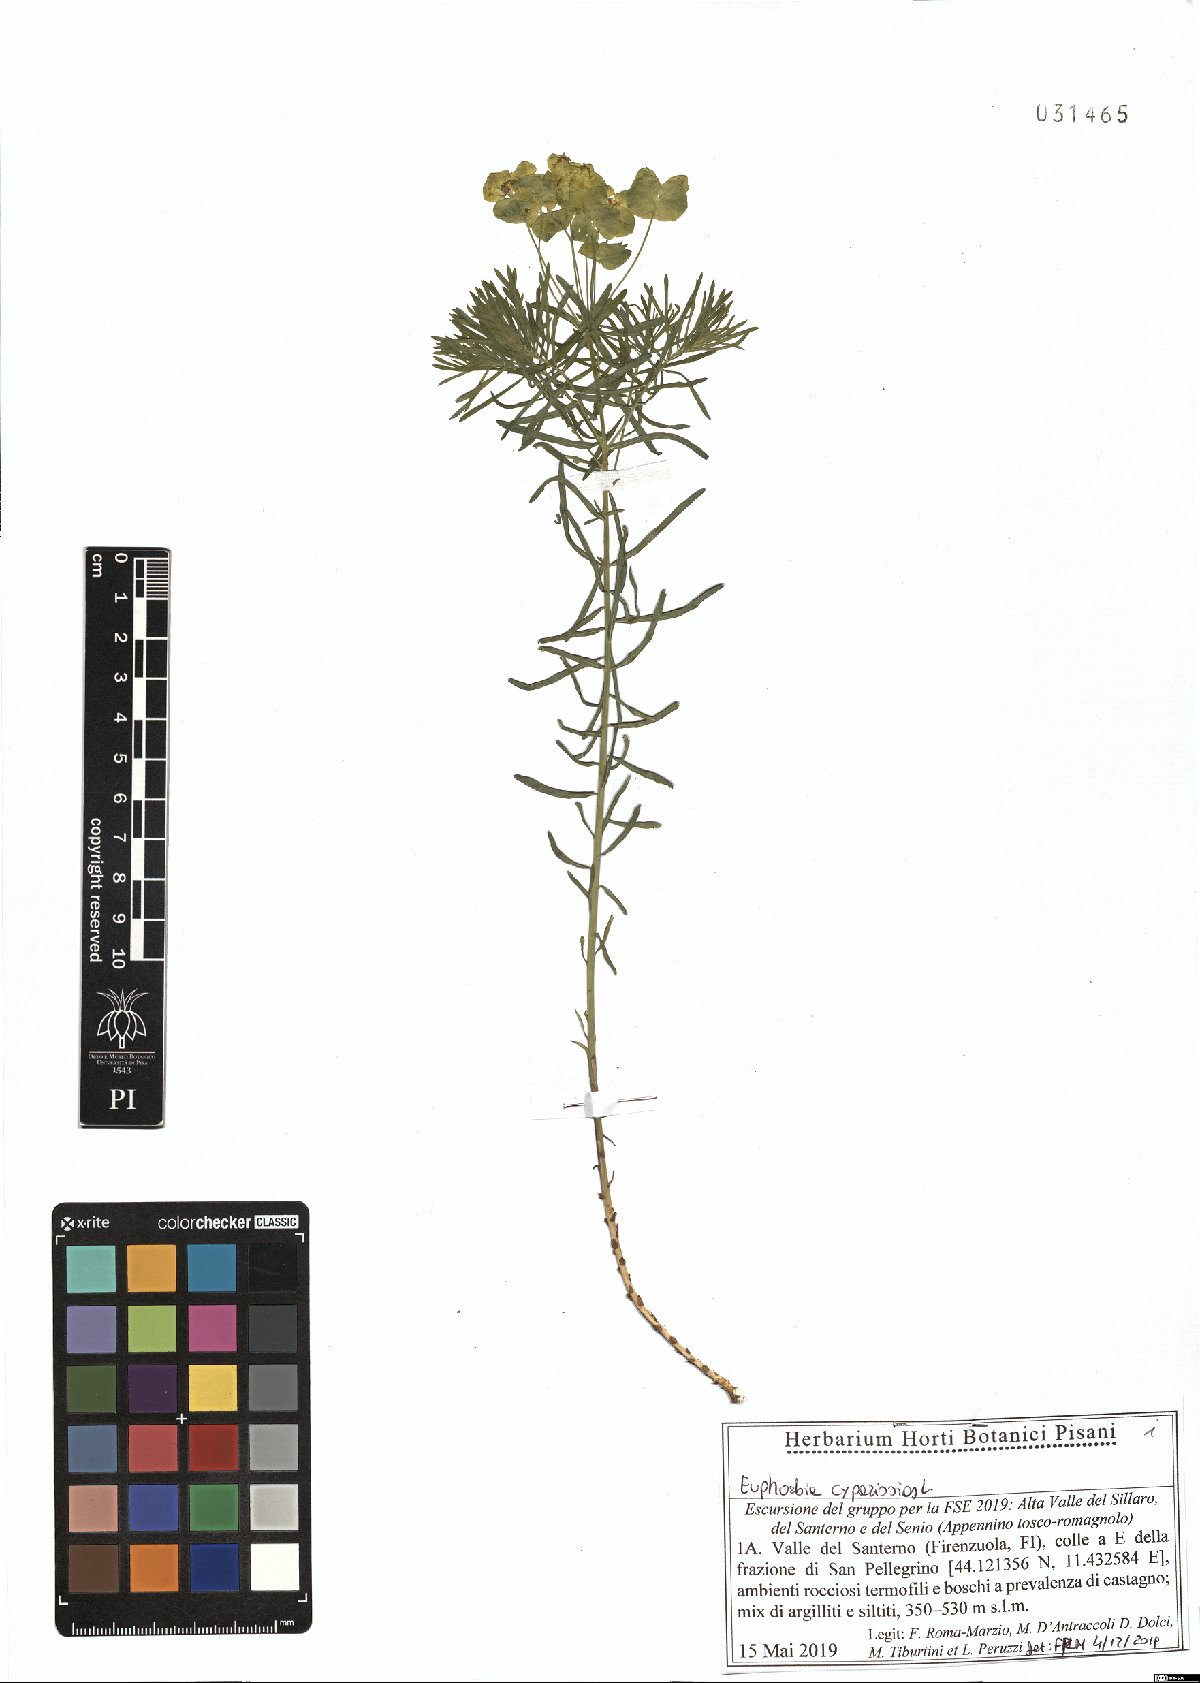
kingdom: Plantae
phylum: Tracheophyta
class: Magnoliopsida
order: Malpighiales
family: Euphorbiaceae
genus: Euphorbia
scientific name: Euphorbia cyparissias
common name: Cypress spurge
